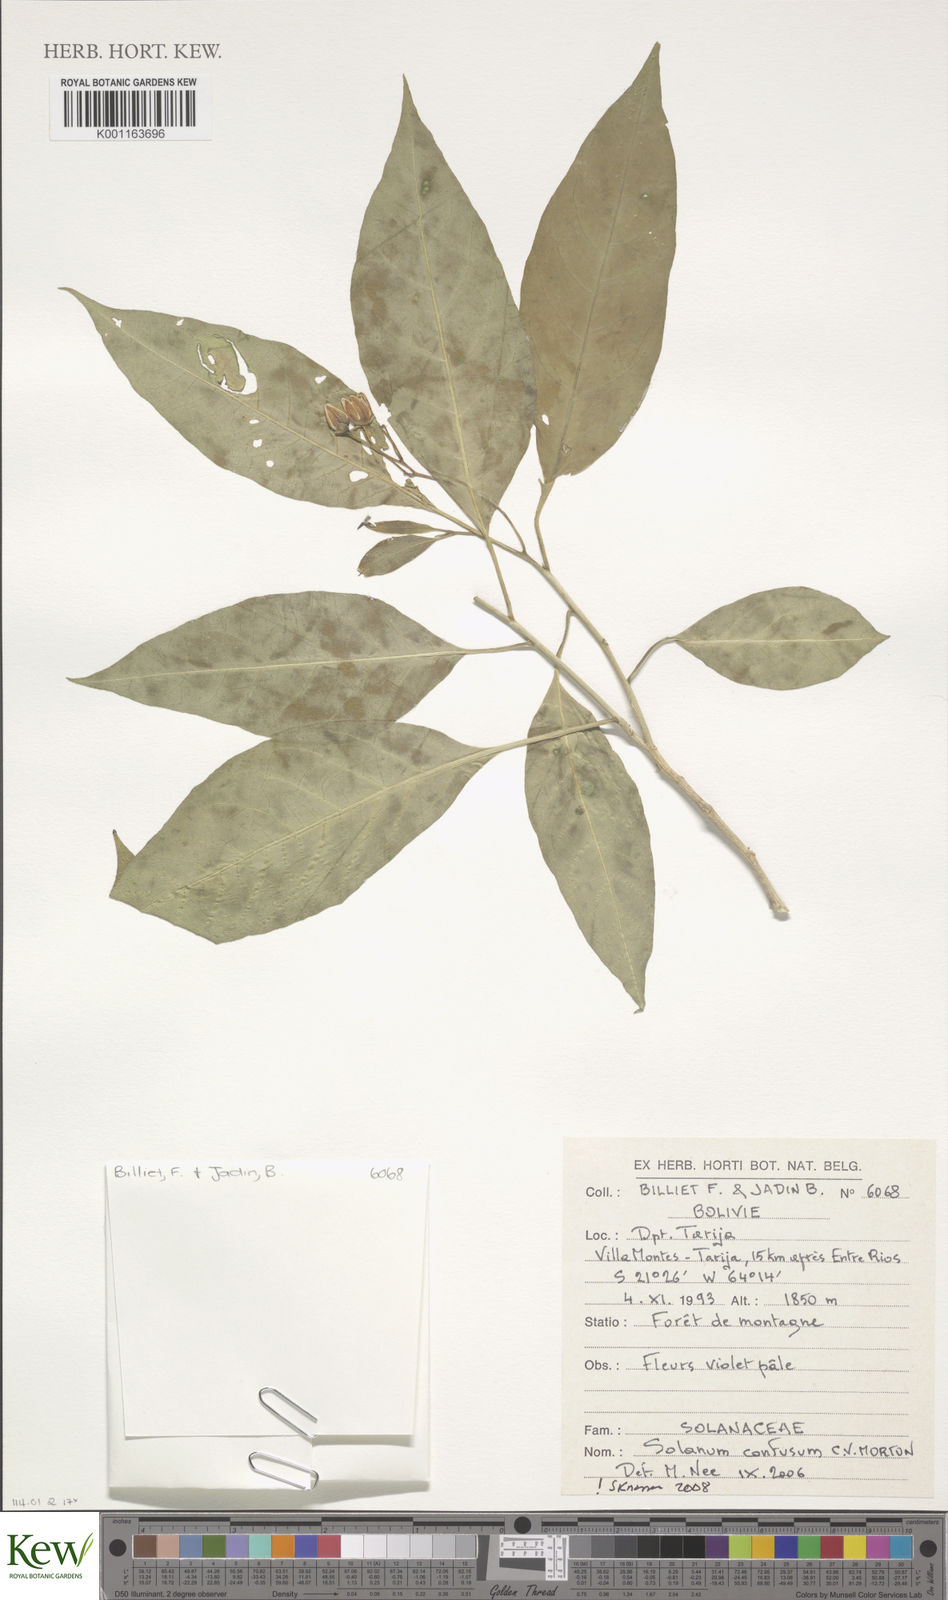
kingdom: Plantae
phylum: Tracheophyta
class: Magnoliopsida
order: Solanales
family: Solanaceae
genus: Solanum
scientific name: Solanum confusum
